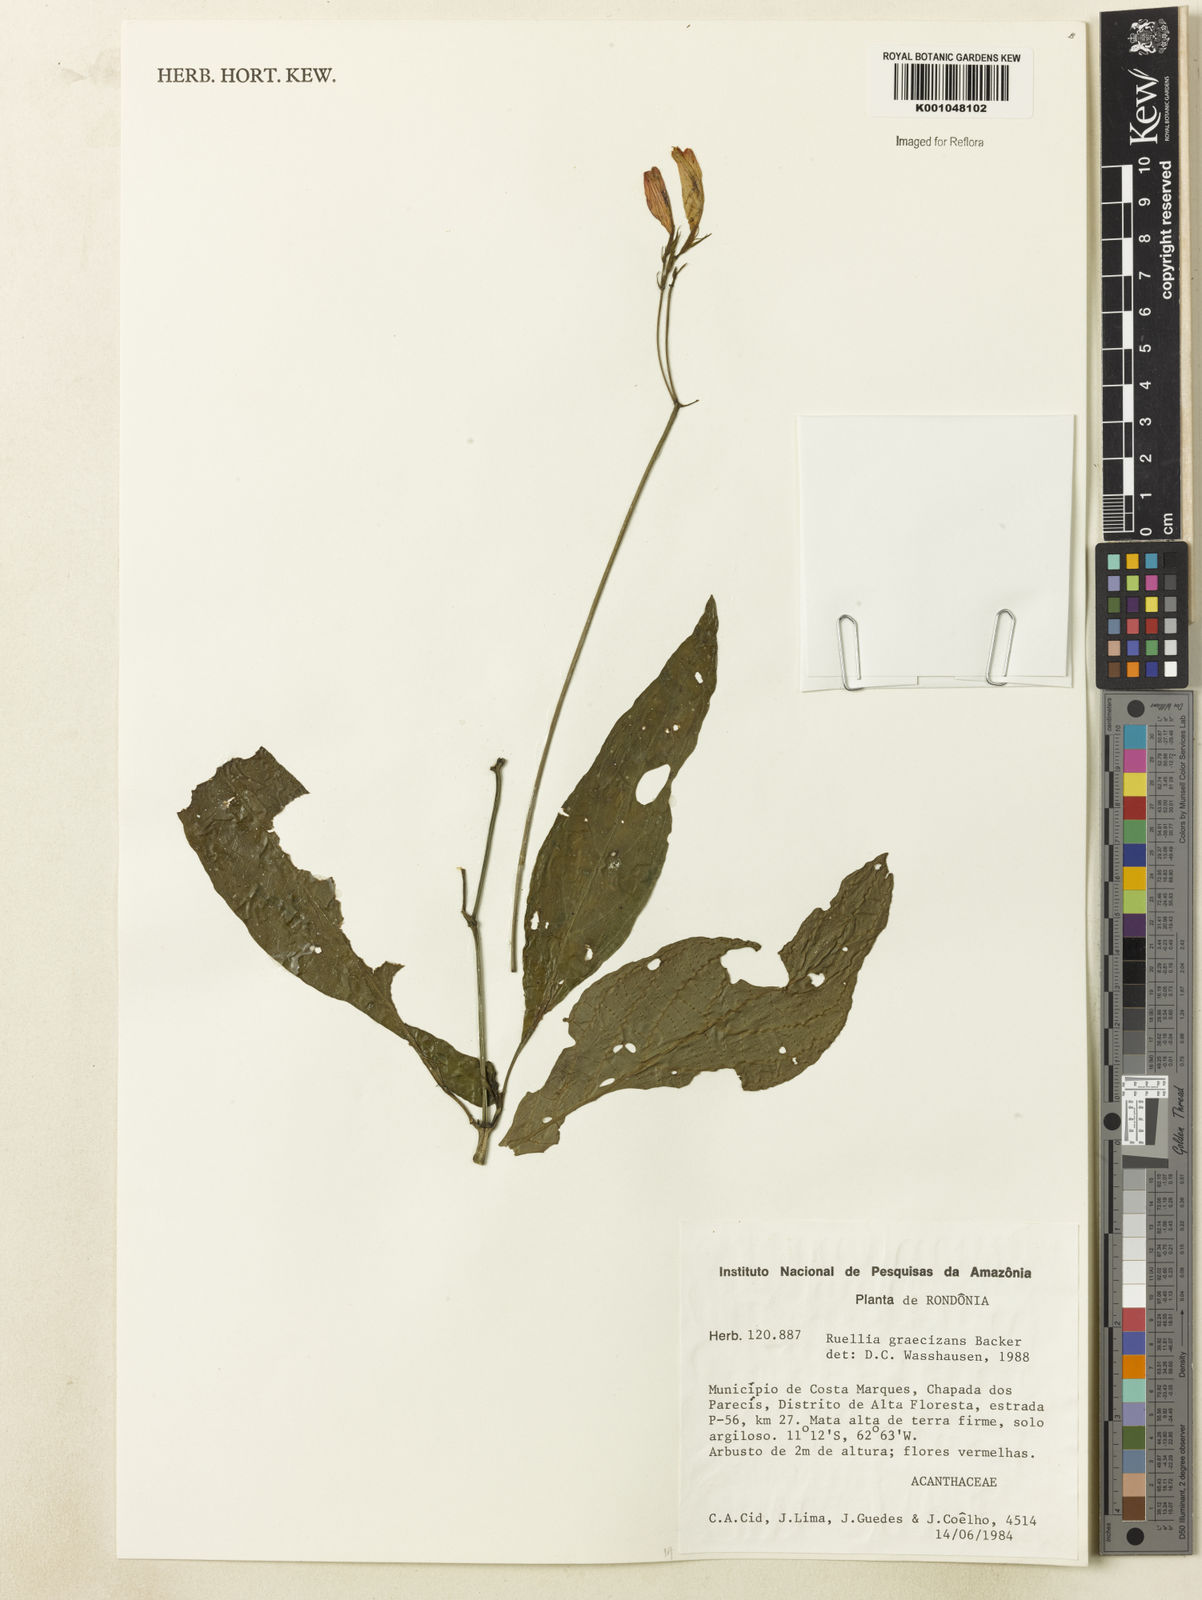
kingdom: Plantae
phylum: Tracheophyta
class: Magnoliopsida
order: Lamiales
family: Acanthaceae
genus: Ruellia
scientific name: Ruellia brevifolia
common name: Tropical wild petunia
